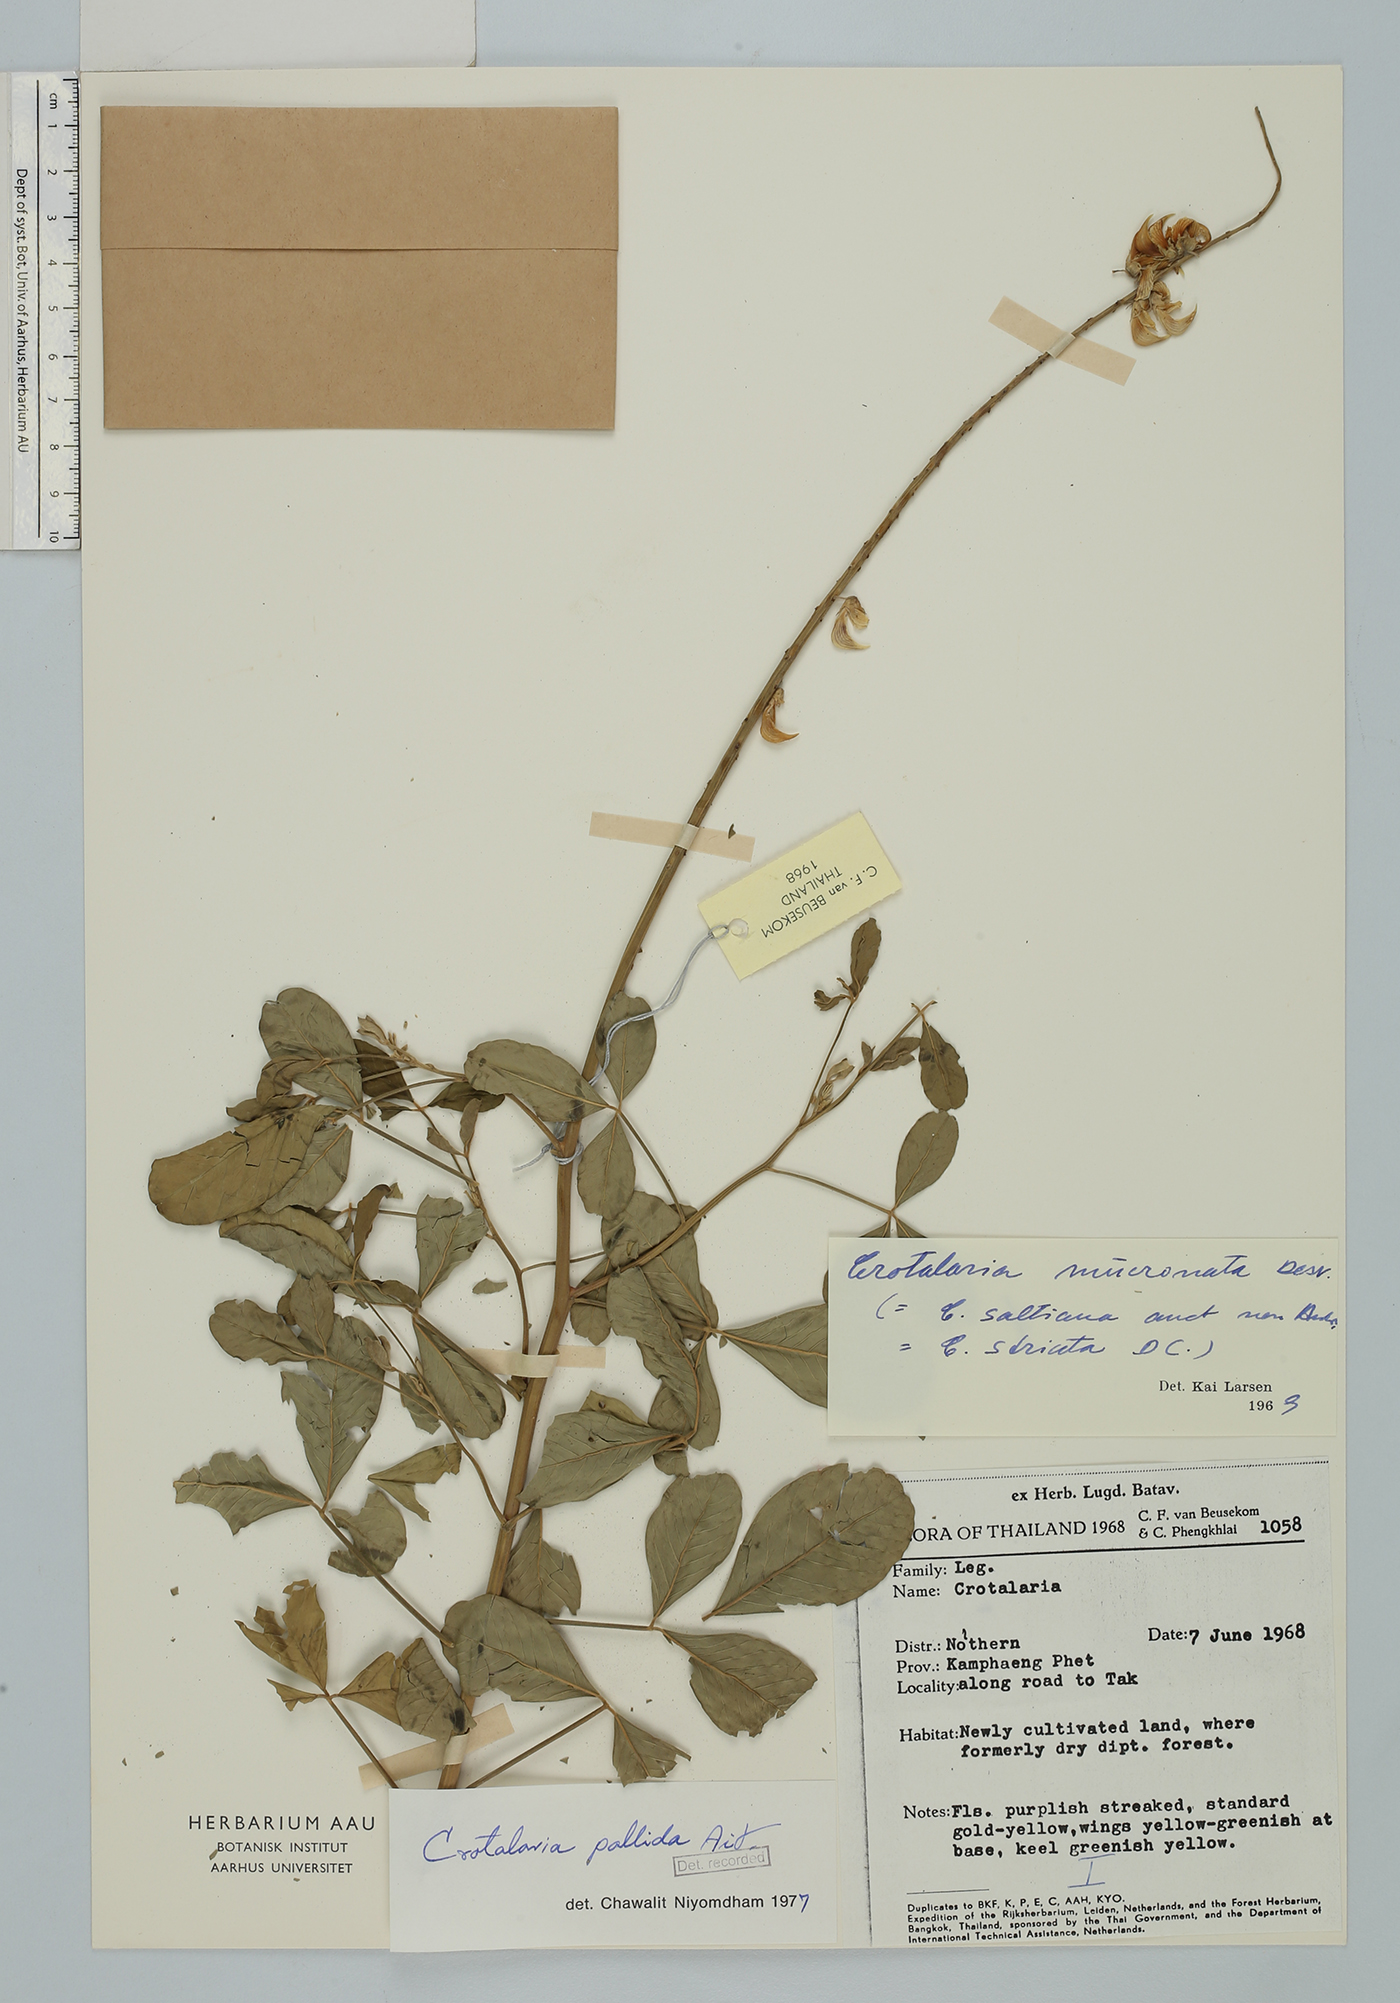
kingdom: Plantae
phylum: Tracheophyta
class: Magnoliopsida
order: Fabales
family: Fabaceae
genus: Crotalaria
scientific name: Crotalaria pallida
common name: Smooth rattlebox
